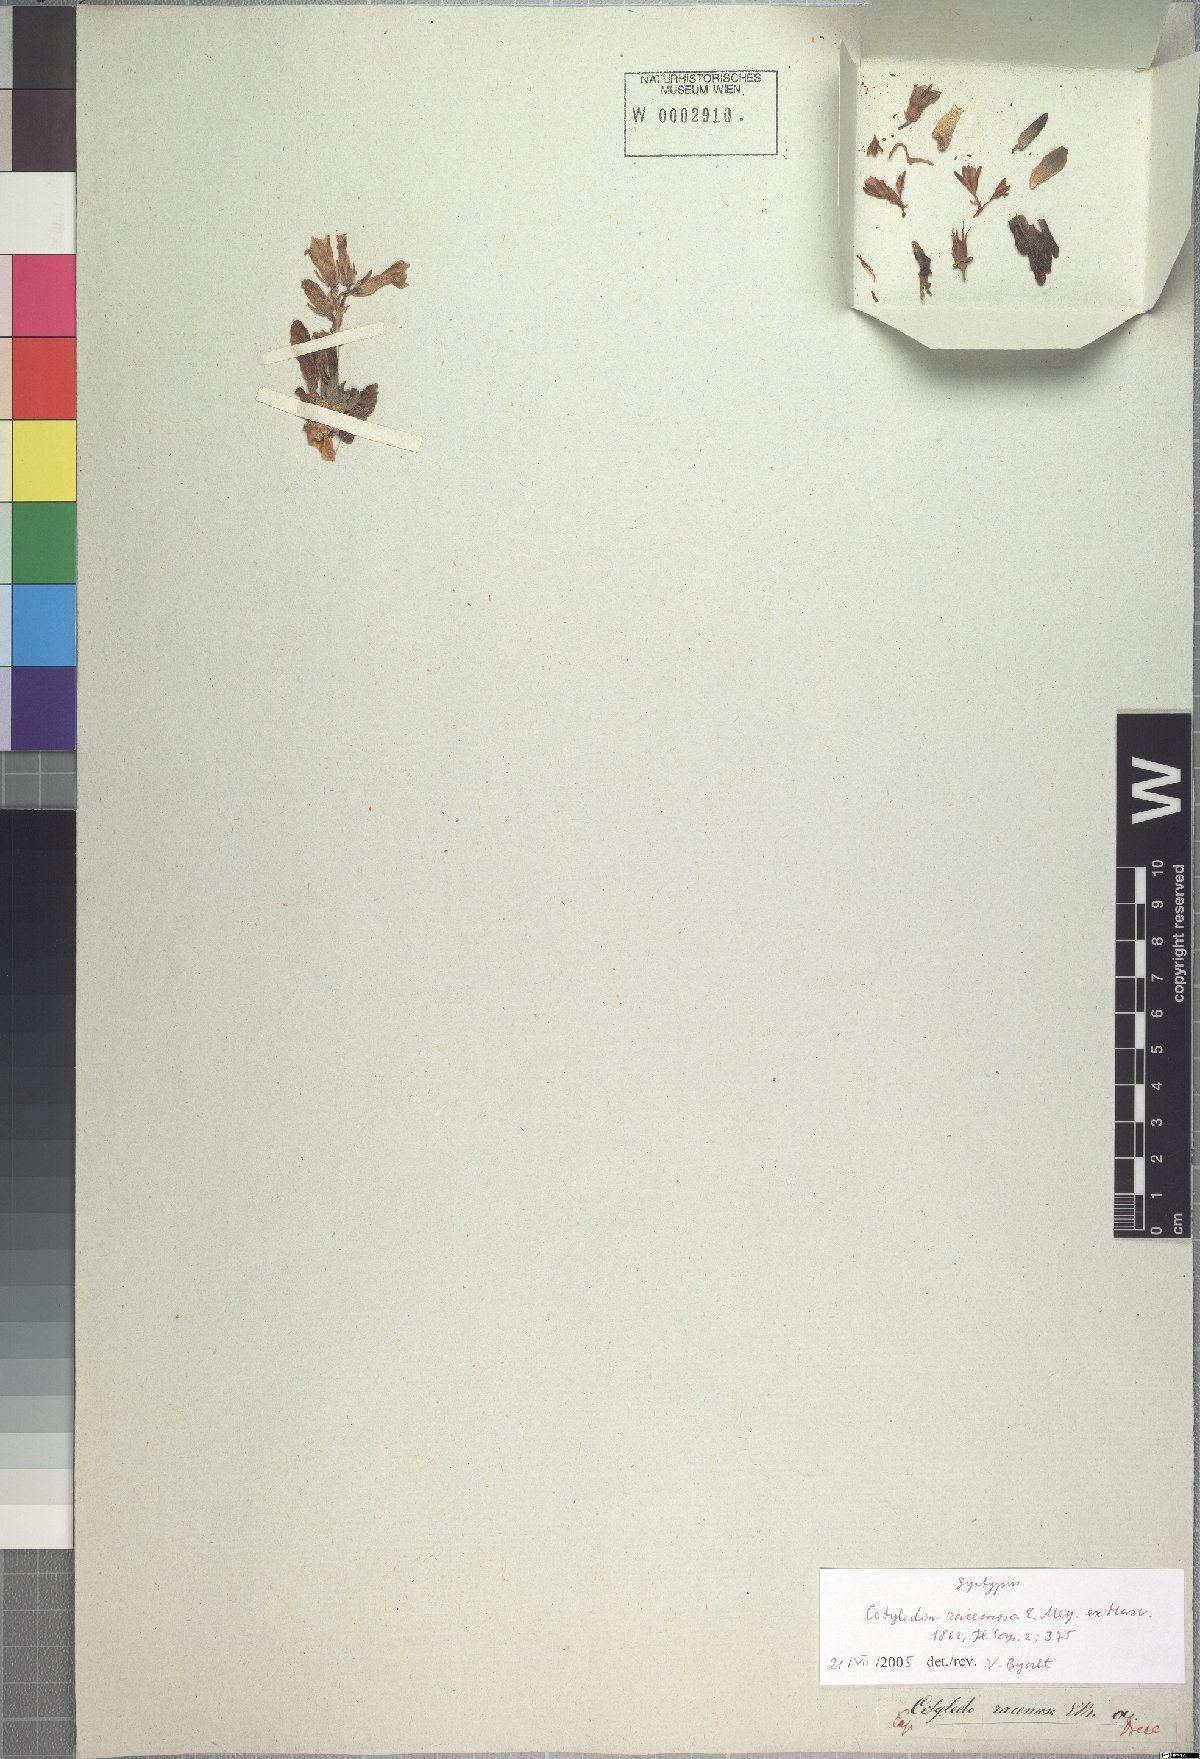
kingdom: Plantae
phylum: Tracheophyta
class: Magnoliopsida
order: Saxifragales
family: Crassulaceae
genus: Tylecodon
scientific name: Tylecodon hallii
